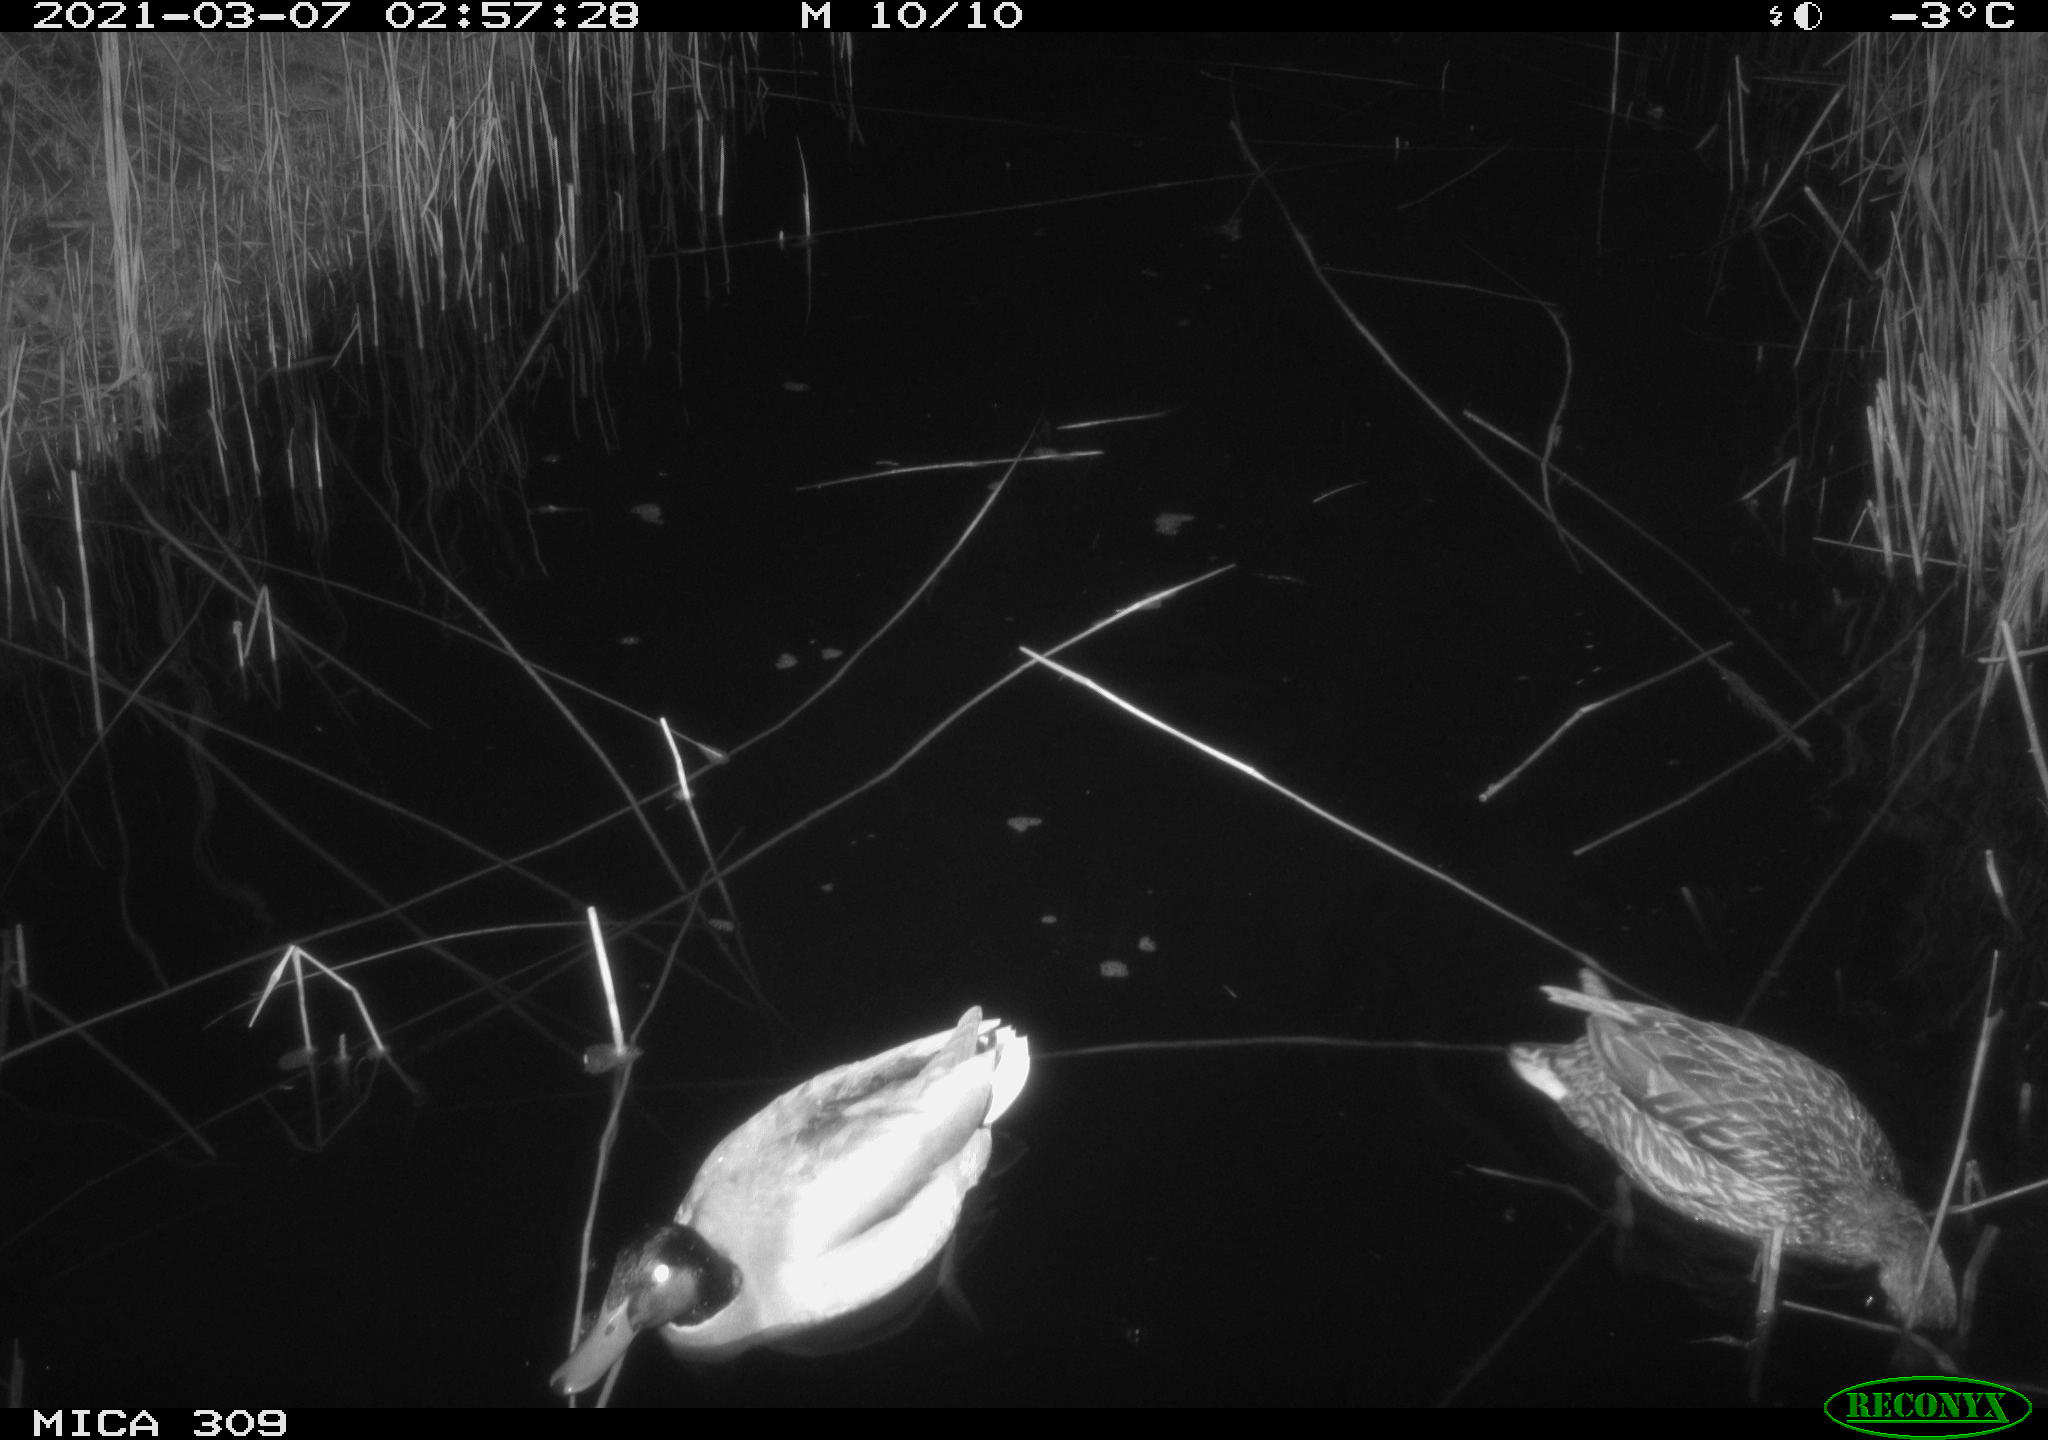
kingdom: Animalia
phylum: Chordata
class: Aves
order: Anseriformes
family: Anatidae
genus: Anas
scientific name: Anas platyrhynchos
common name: Mallard
